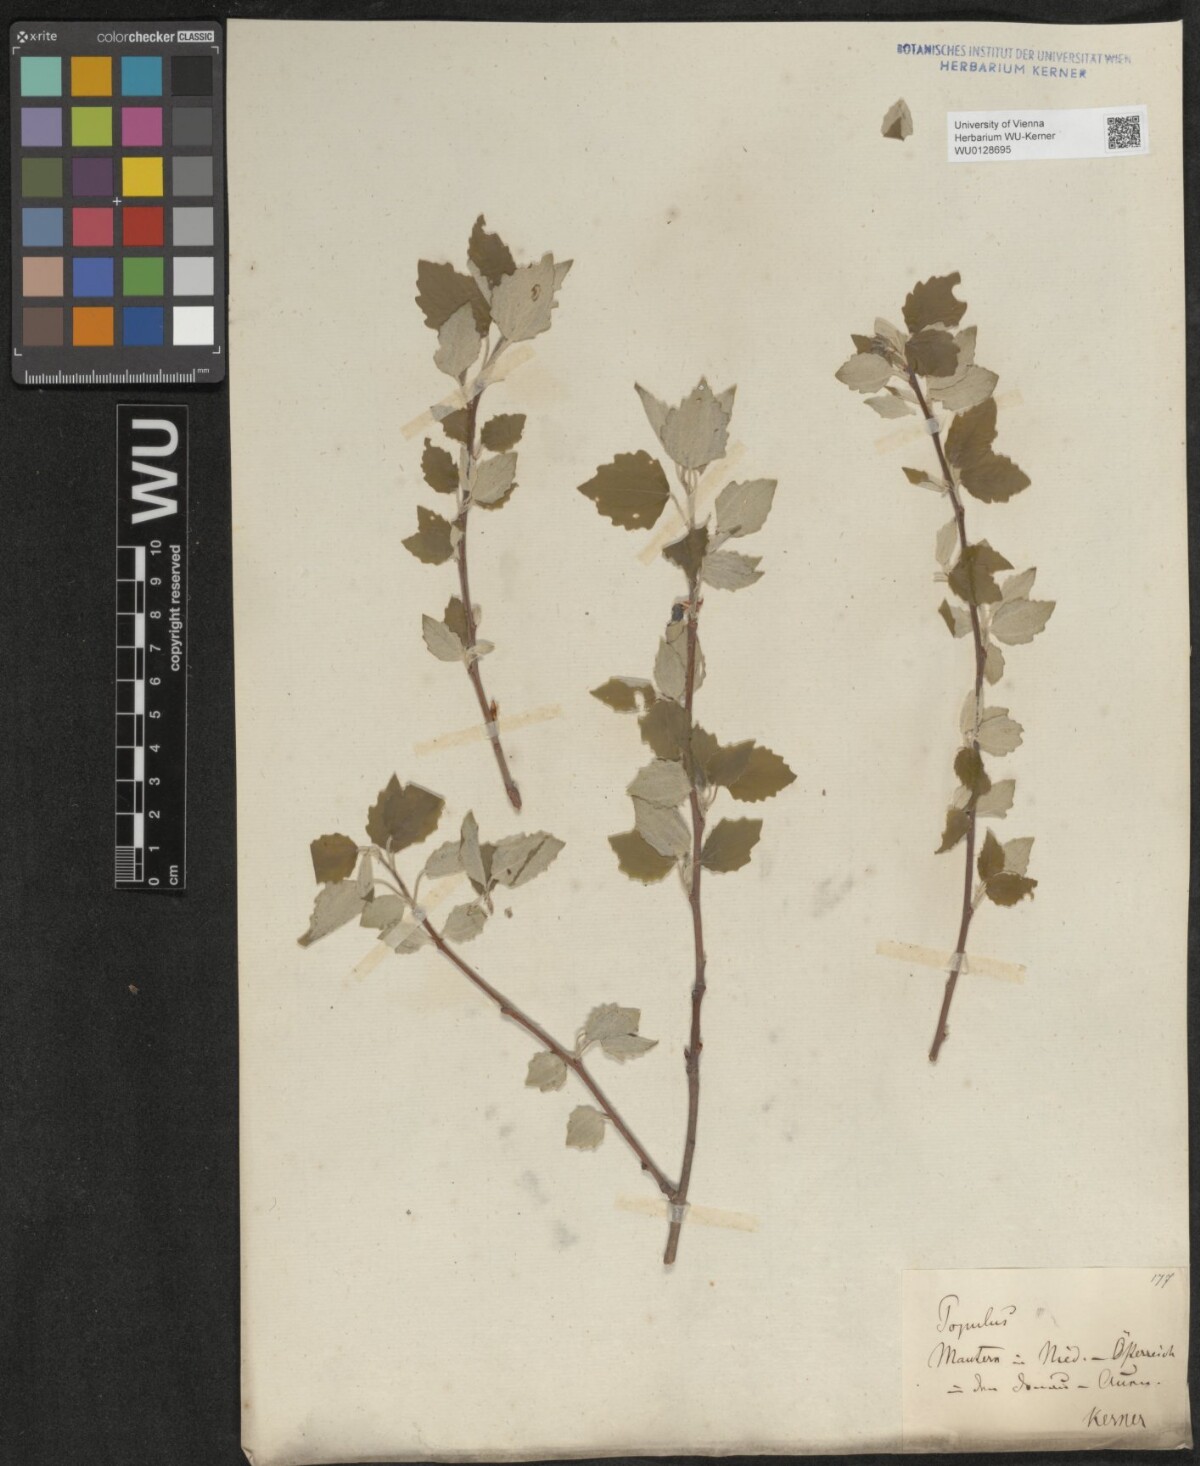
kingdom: Plantae
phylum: Tracheophyta
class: Magnoliopsida
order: Malpighiales
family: Salicaceae
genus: Populus
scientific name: Populus canescens
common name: Gray poplar
